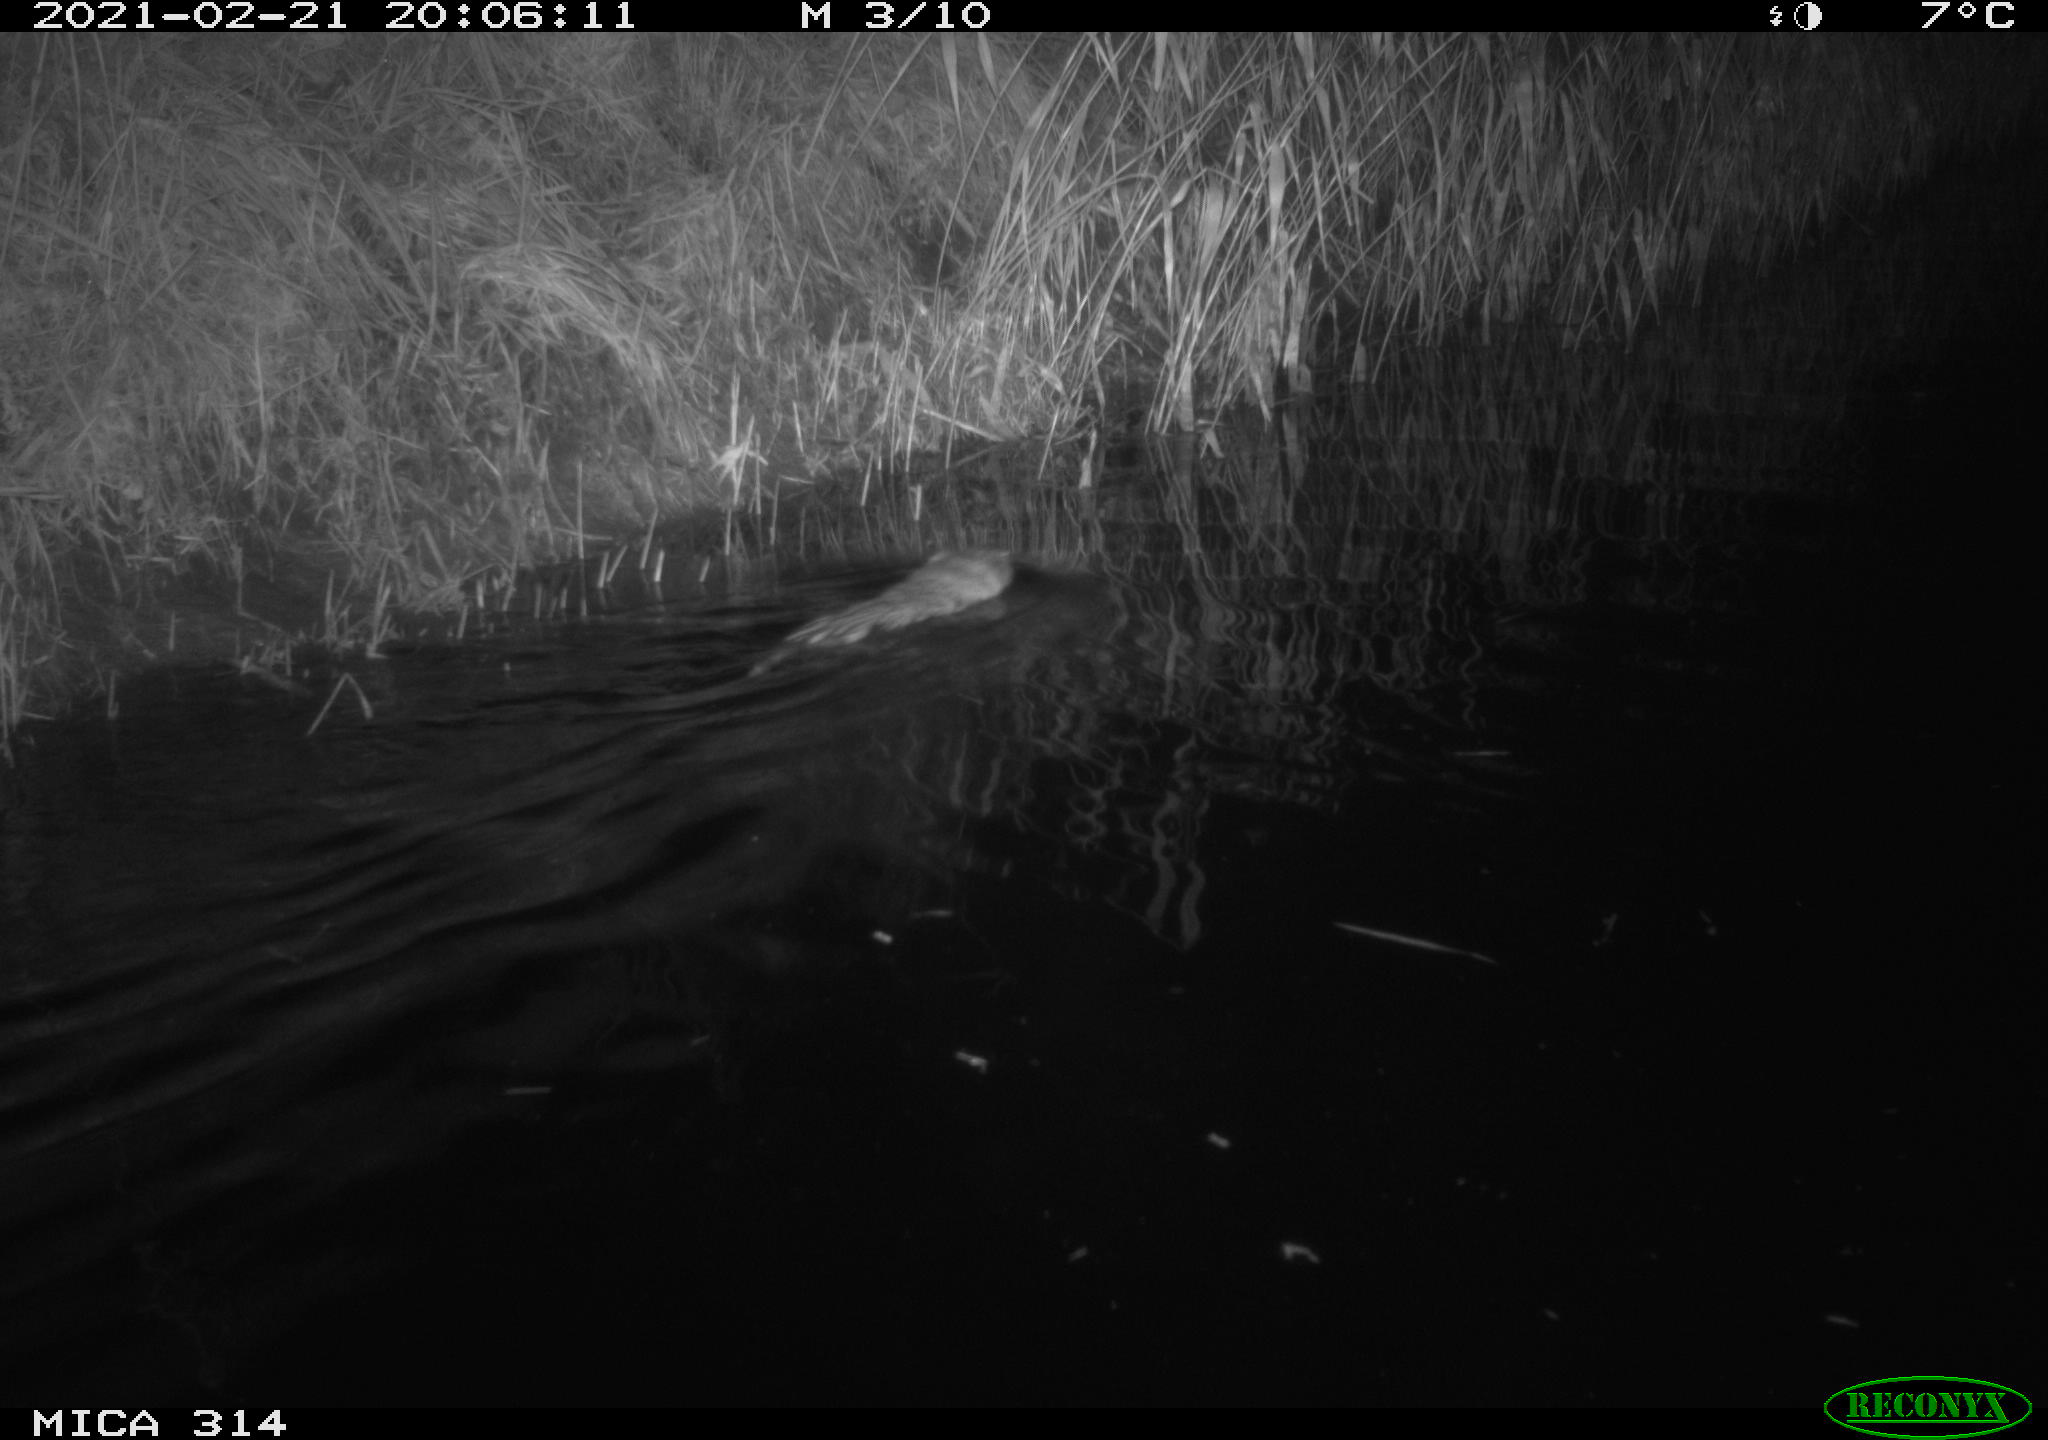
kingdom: Animalia
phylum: Chordata
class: Mammalia
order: Rodentia
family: Cricetidae
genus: Ondatra
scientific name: Ondatra zibethicus
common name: Muskrat
